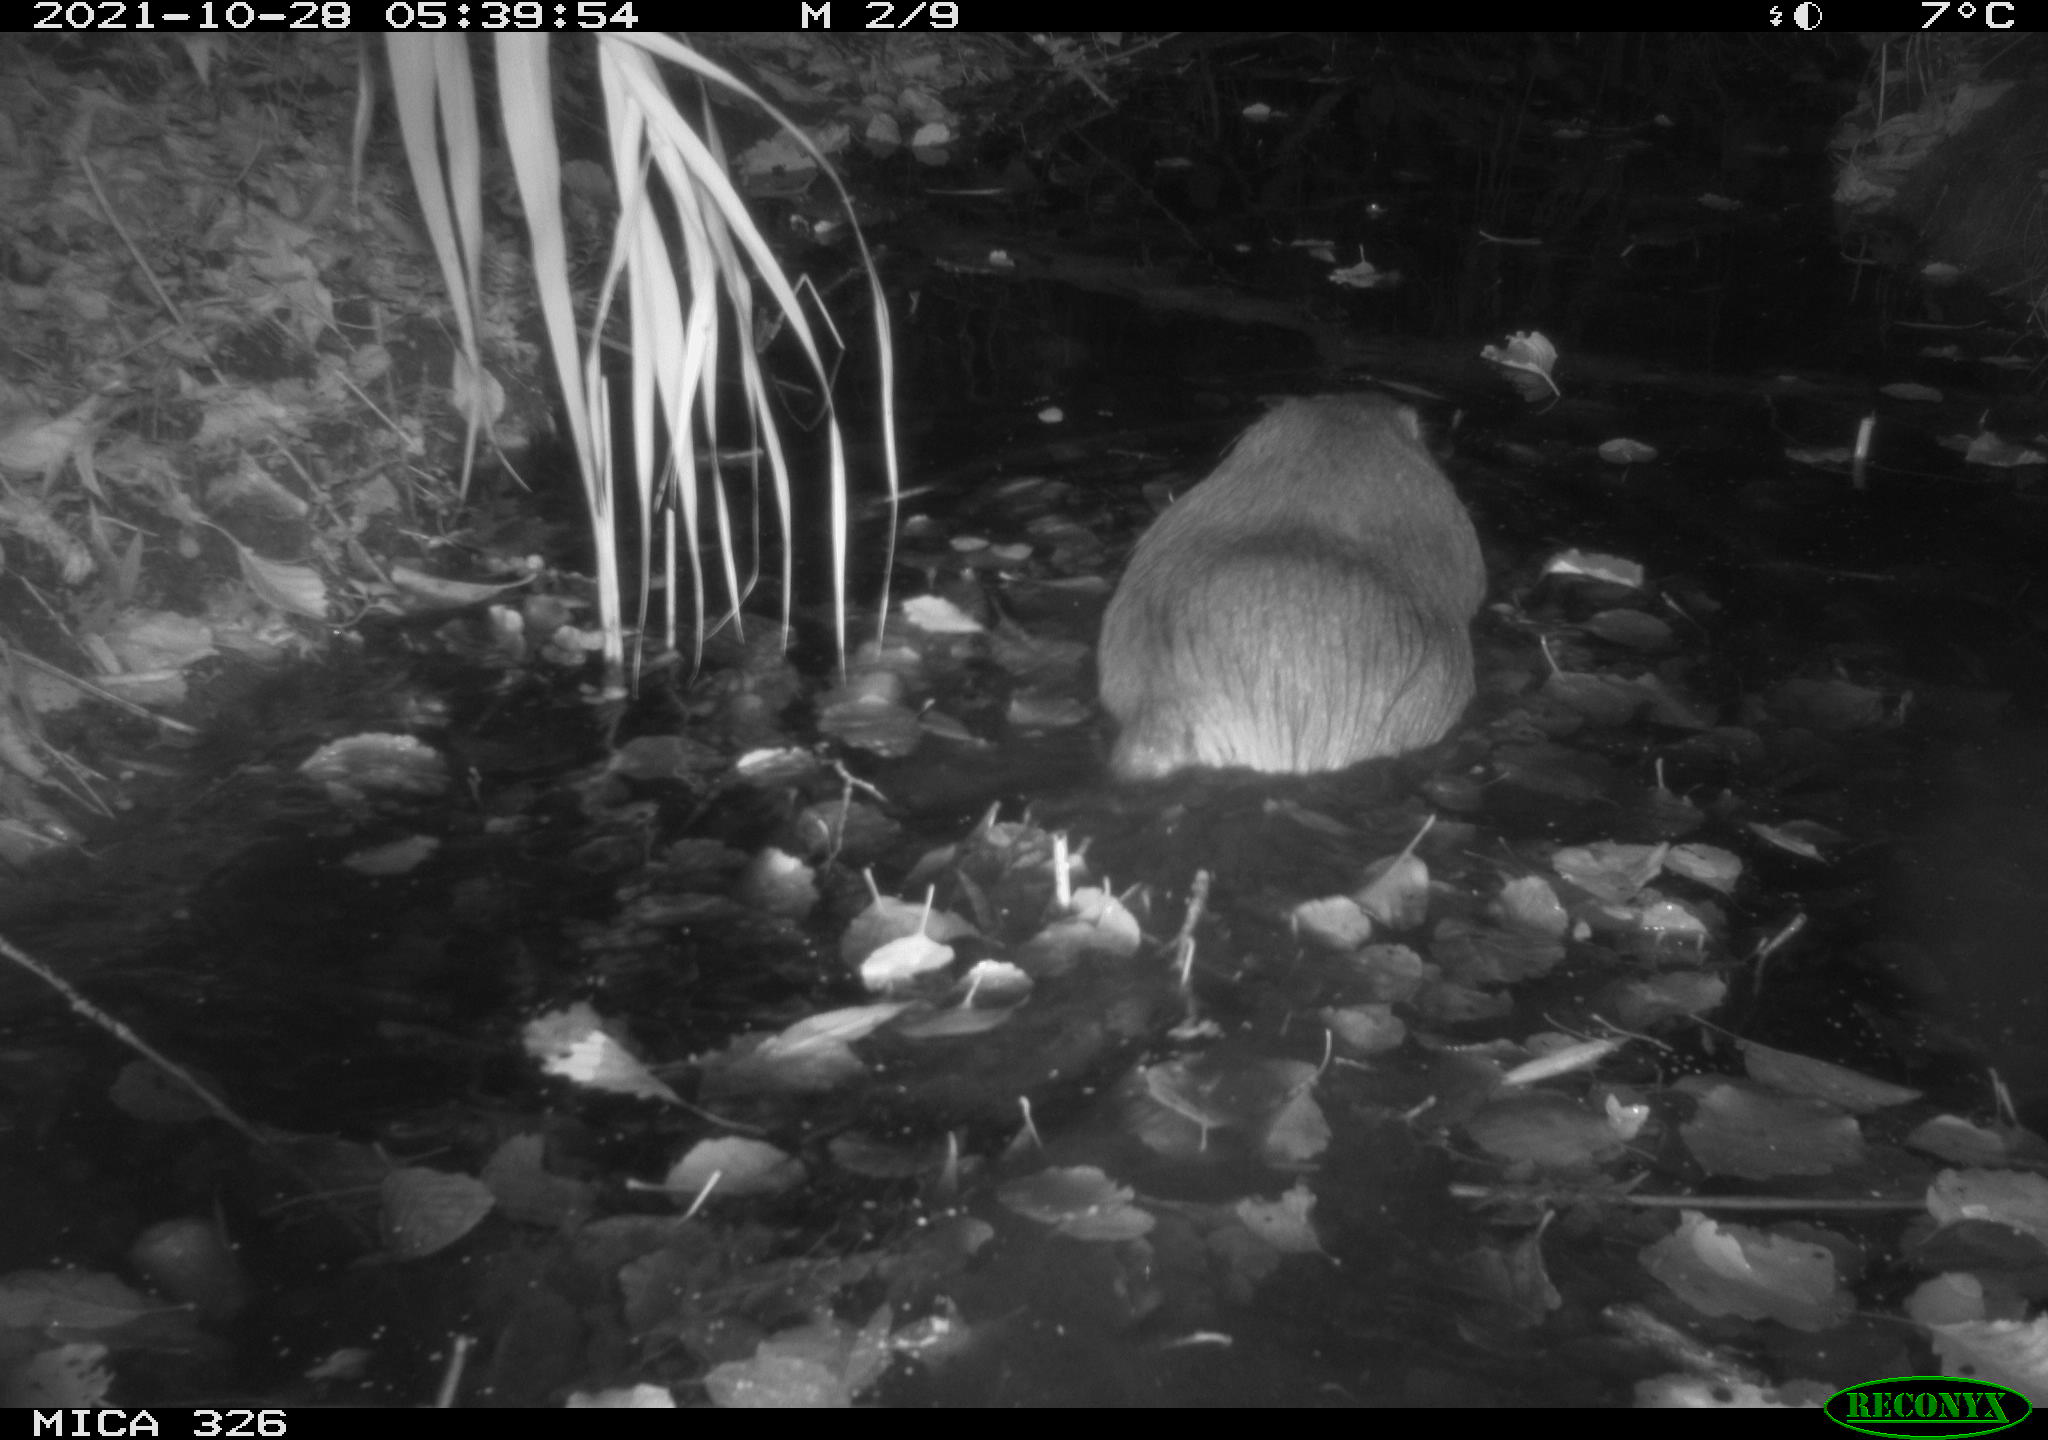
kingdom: Animalia
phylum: Chordata
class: Mammalia
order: Rodentia
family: Myocastoridae
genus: Myocastor
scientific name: Myocastor coypus
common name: Coypu
